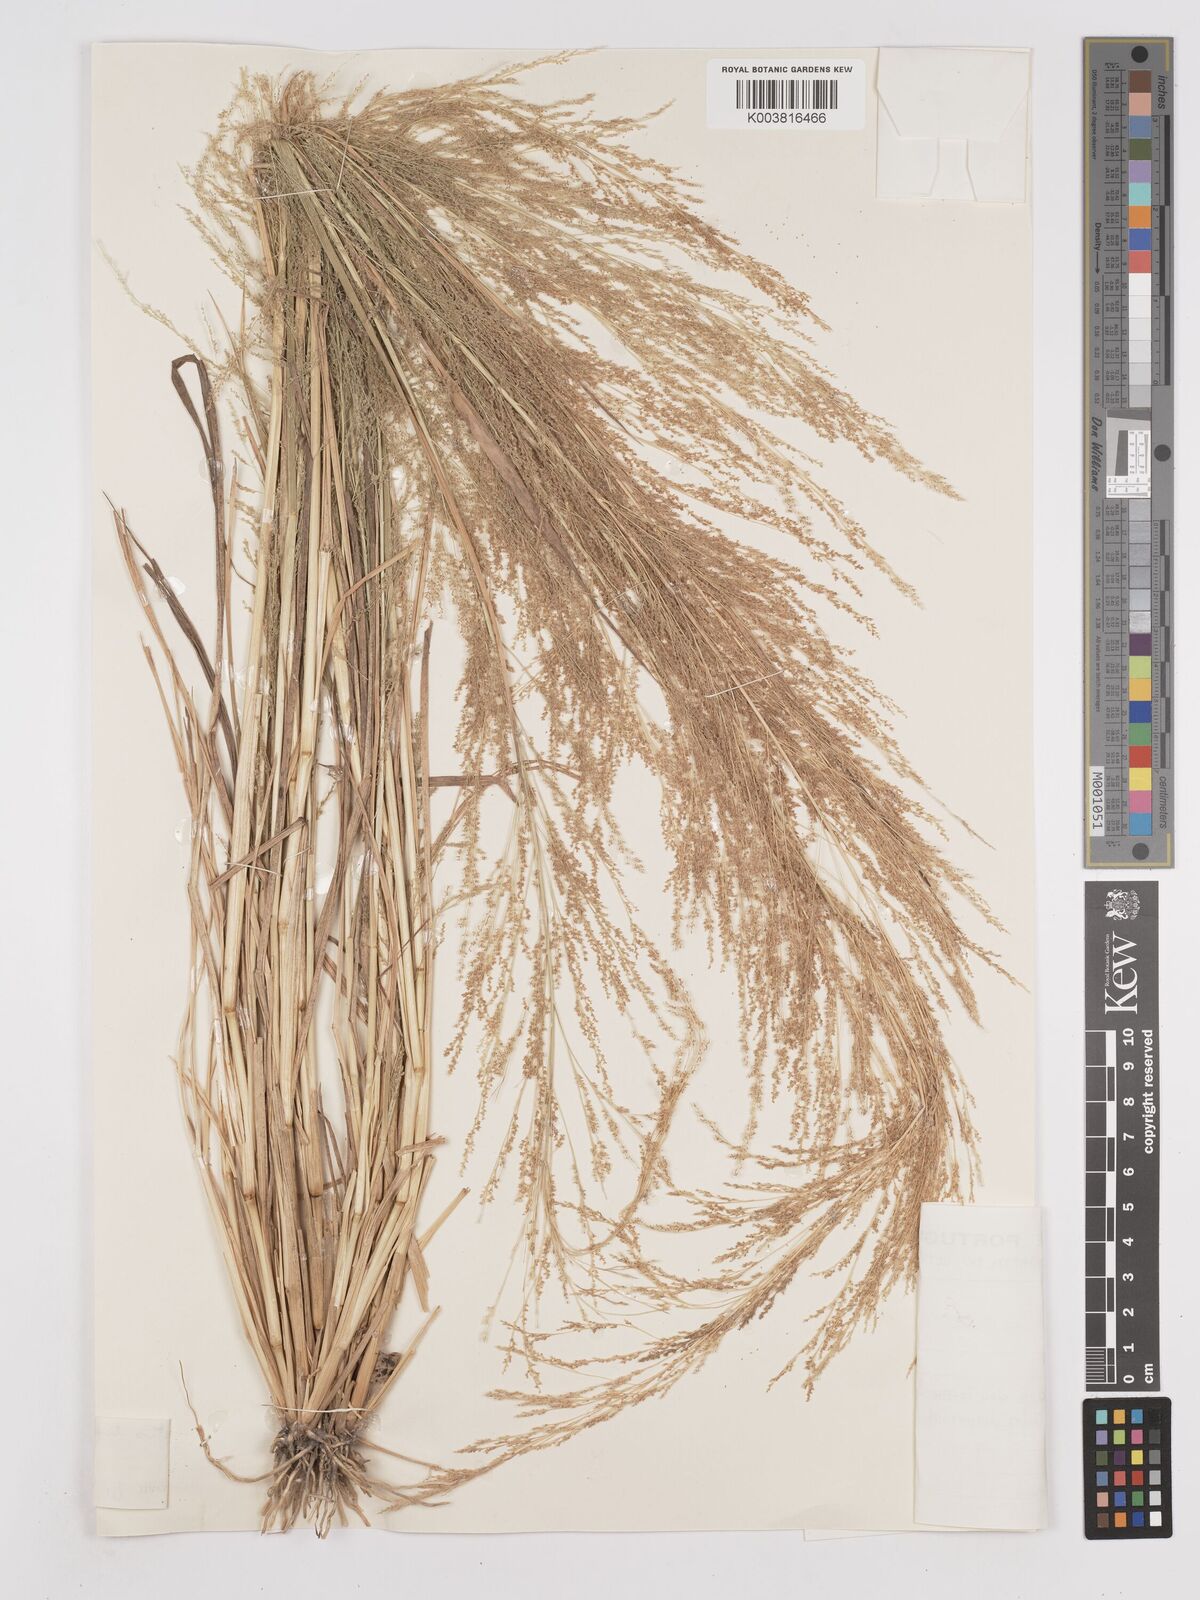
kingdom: Plantae
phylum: Tracheophyta
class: Liliopsida
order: Poales
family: Poaceae
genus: Eragrostis
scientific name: Eragrostis japonica
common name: Pond lovegrass
